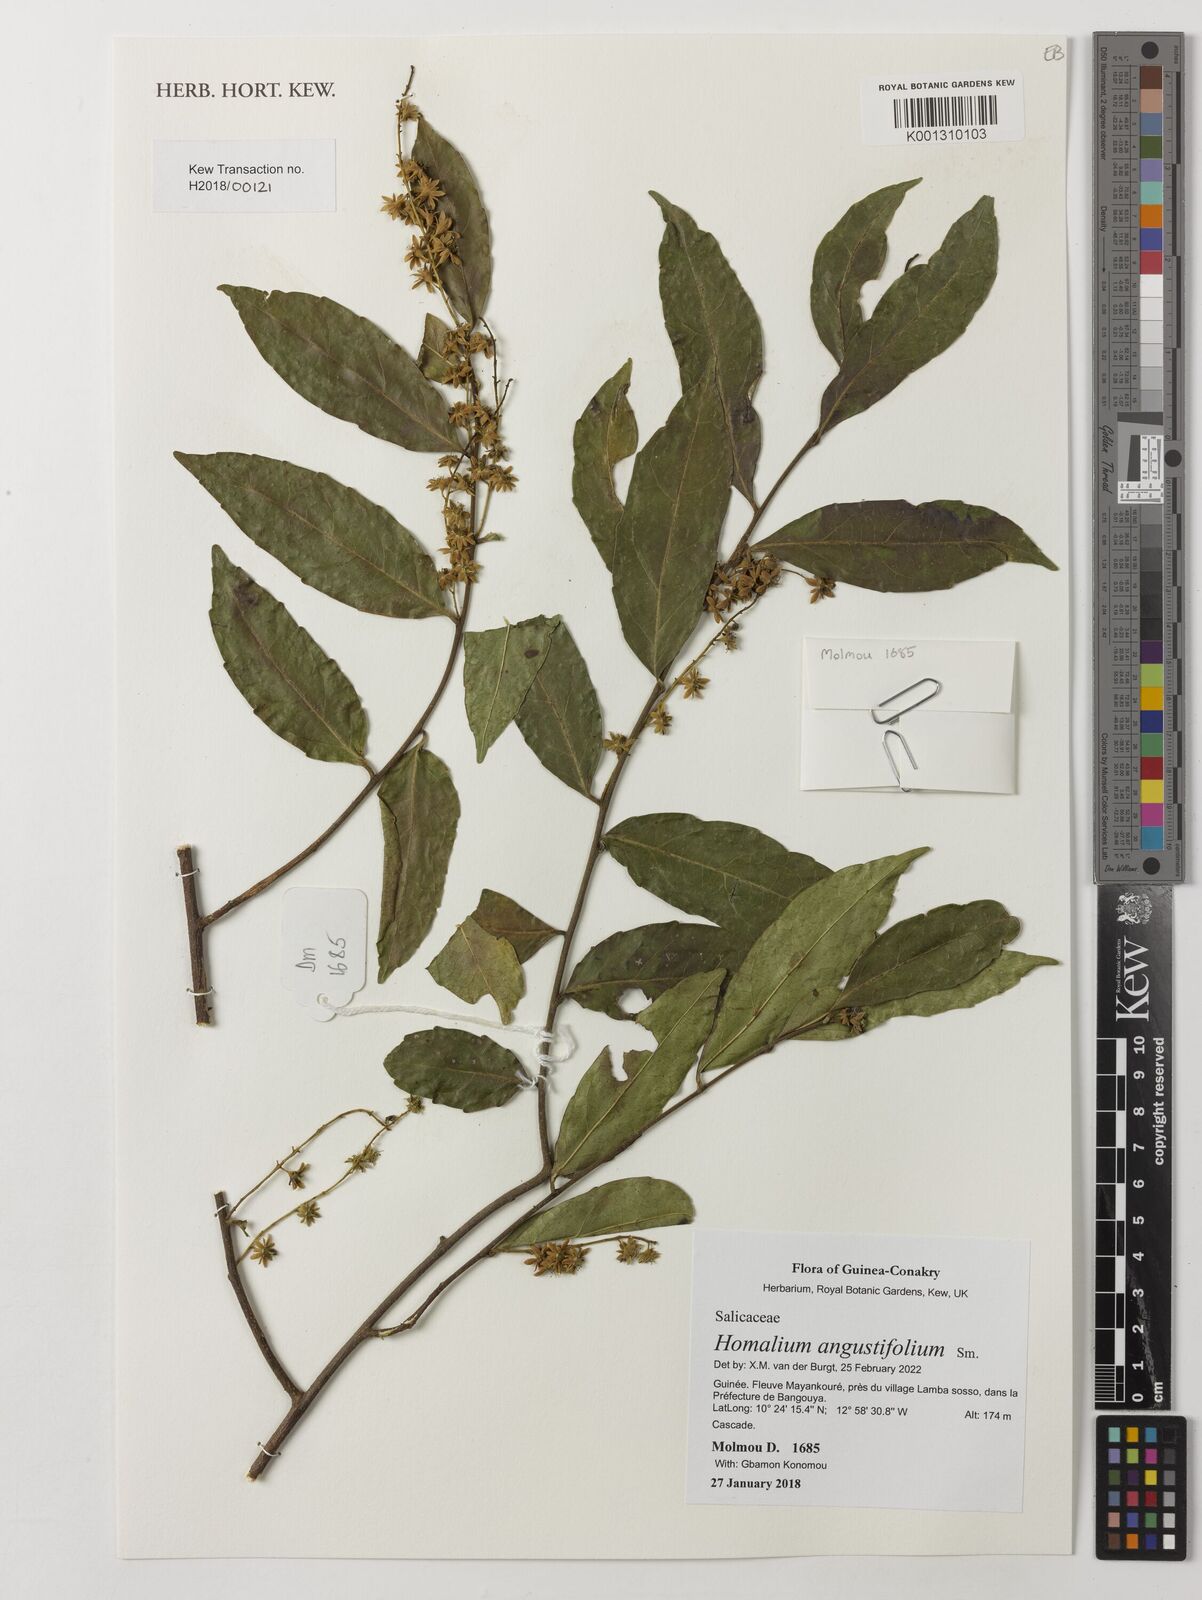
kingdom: Plantae
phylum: Tracheophyta
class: Magnoliopsida
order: Malpighiales
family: Salicaceae
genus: Homalium
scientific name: Homalium angustifolium
